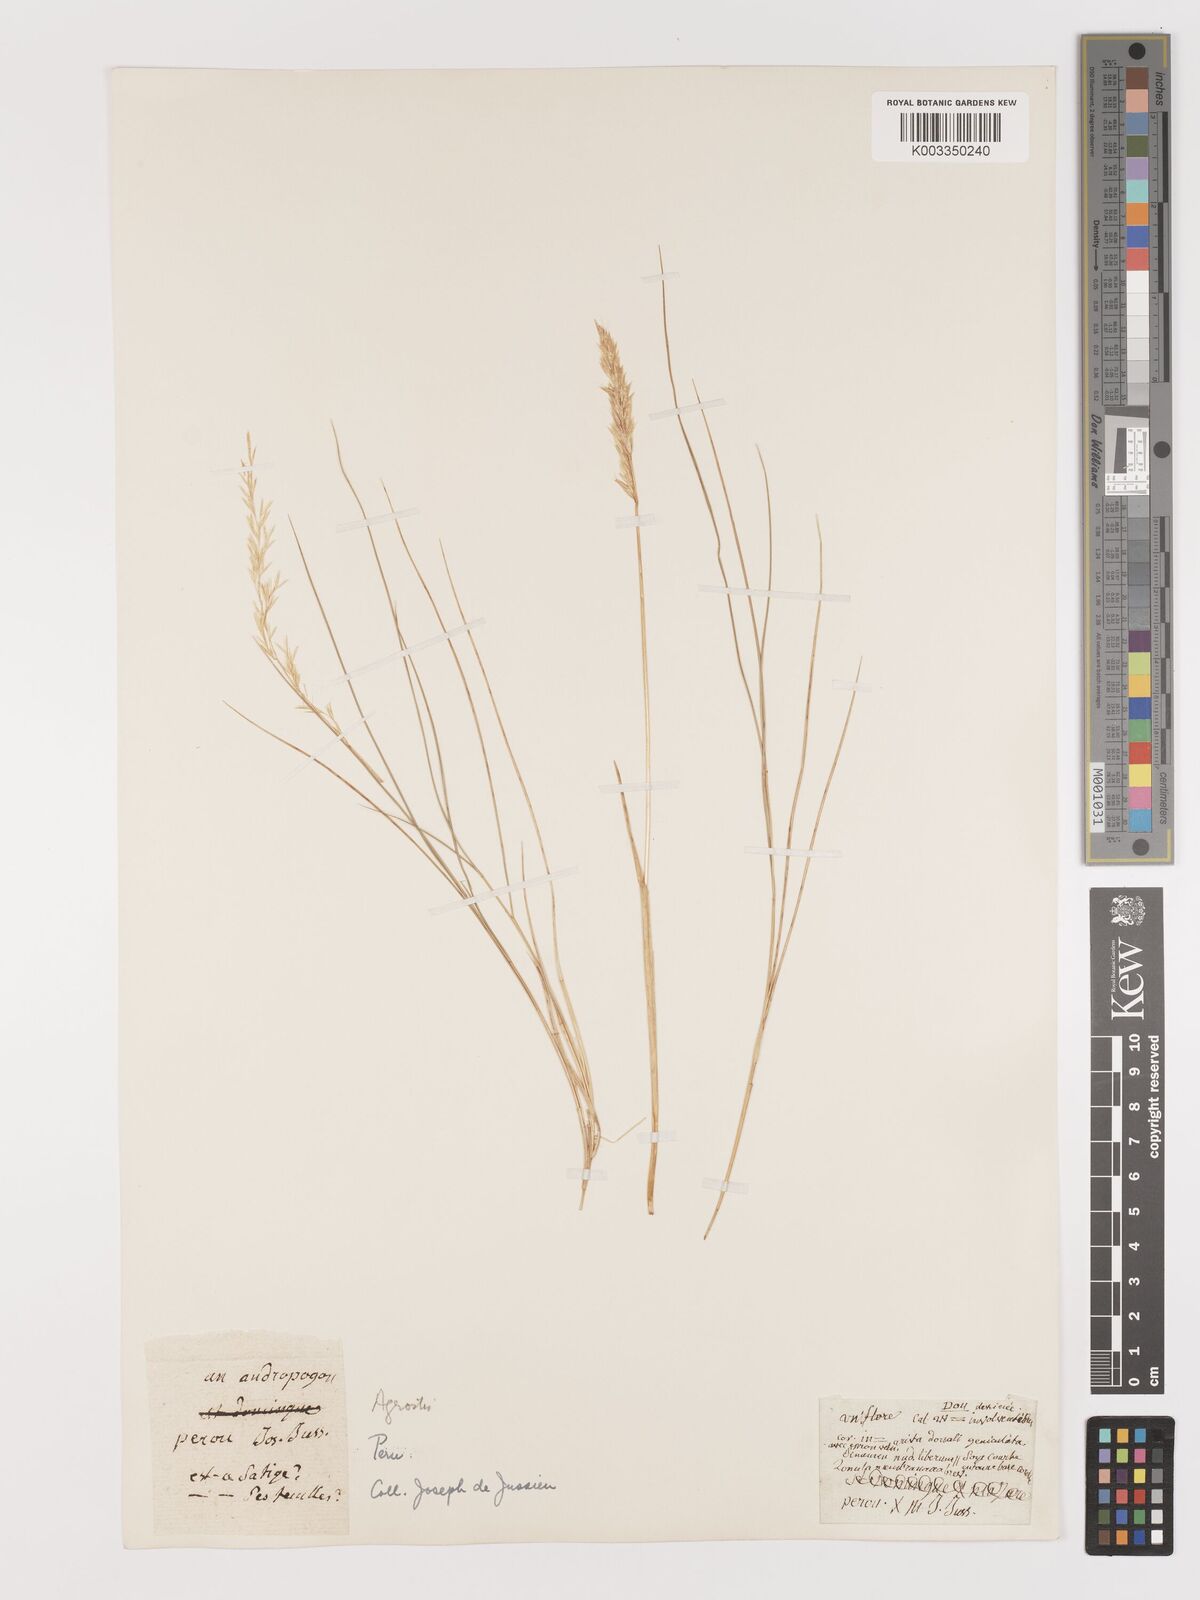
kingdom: Plantae
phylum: Tracheophyta
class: Liliopsida
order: Poales
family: Poaceae
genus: Agrostis
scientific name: Agrostis
